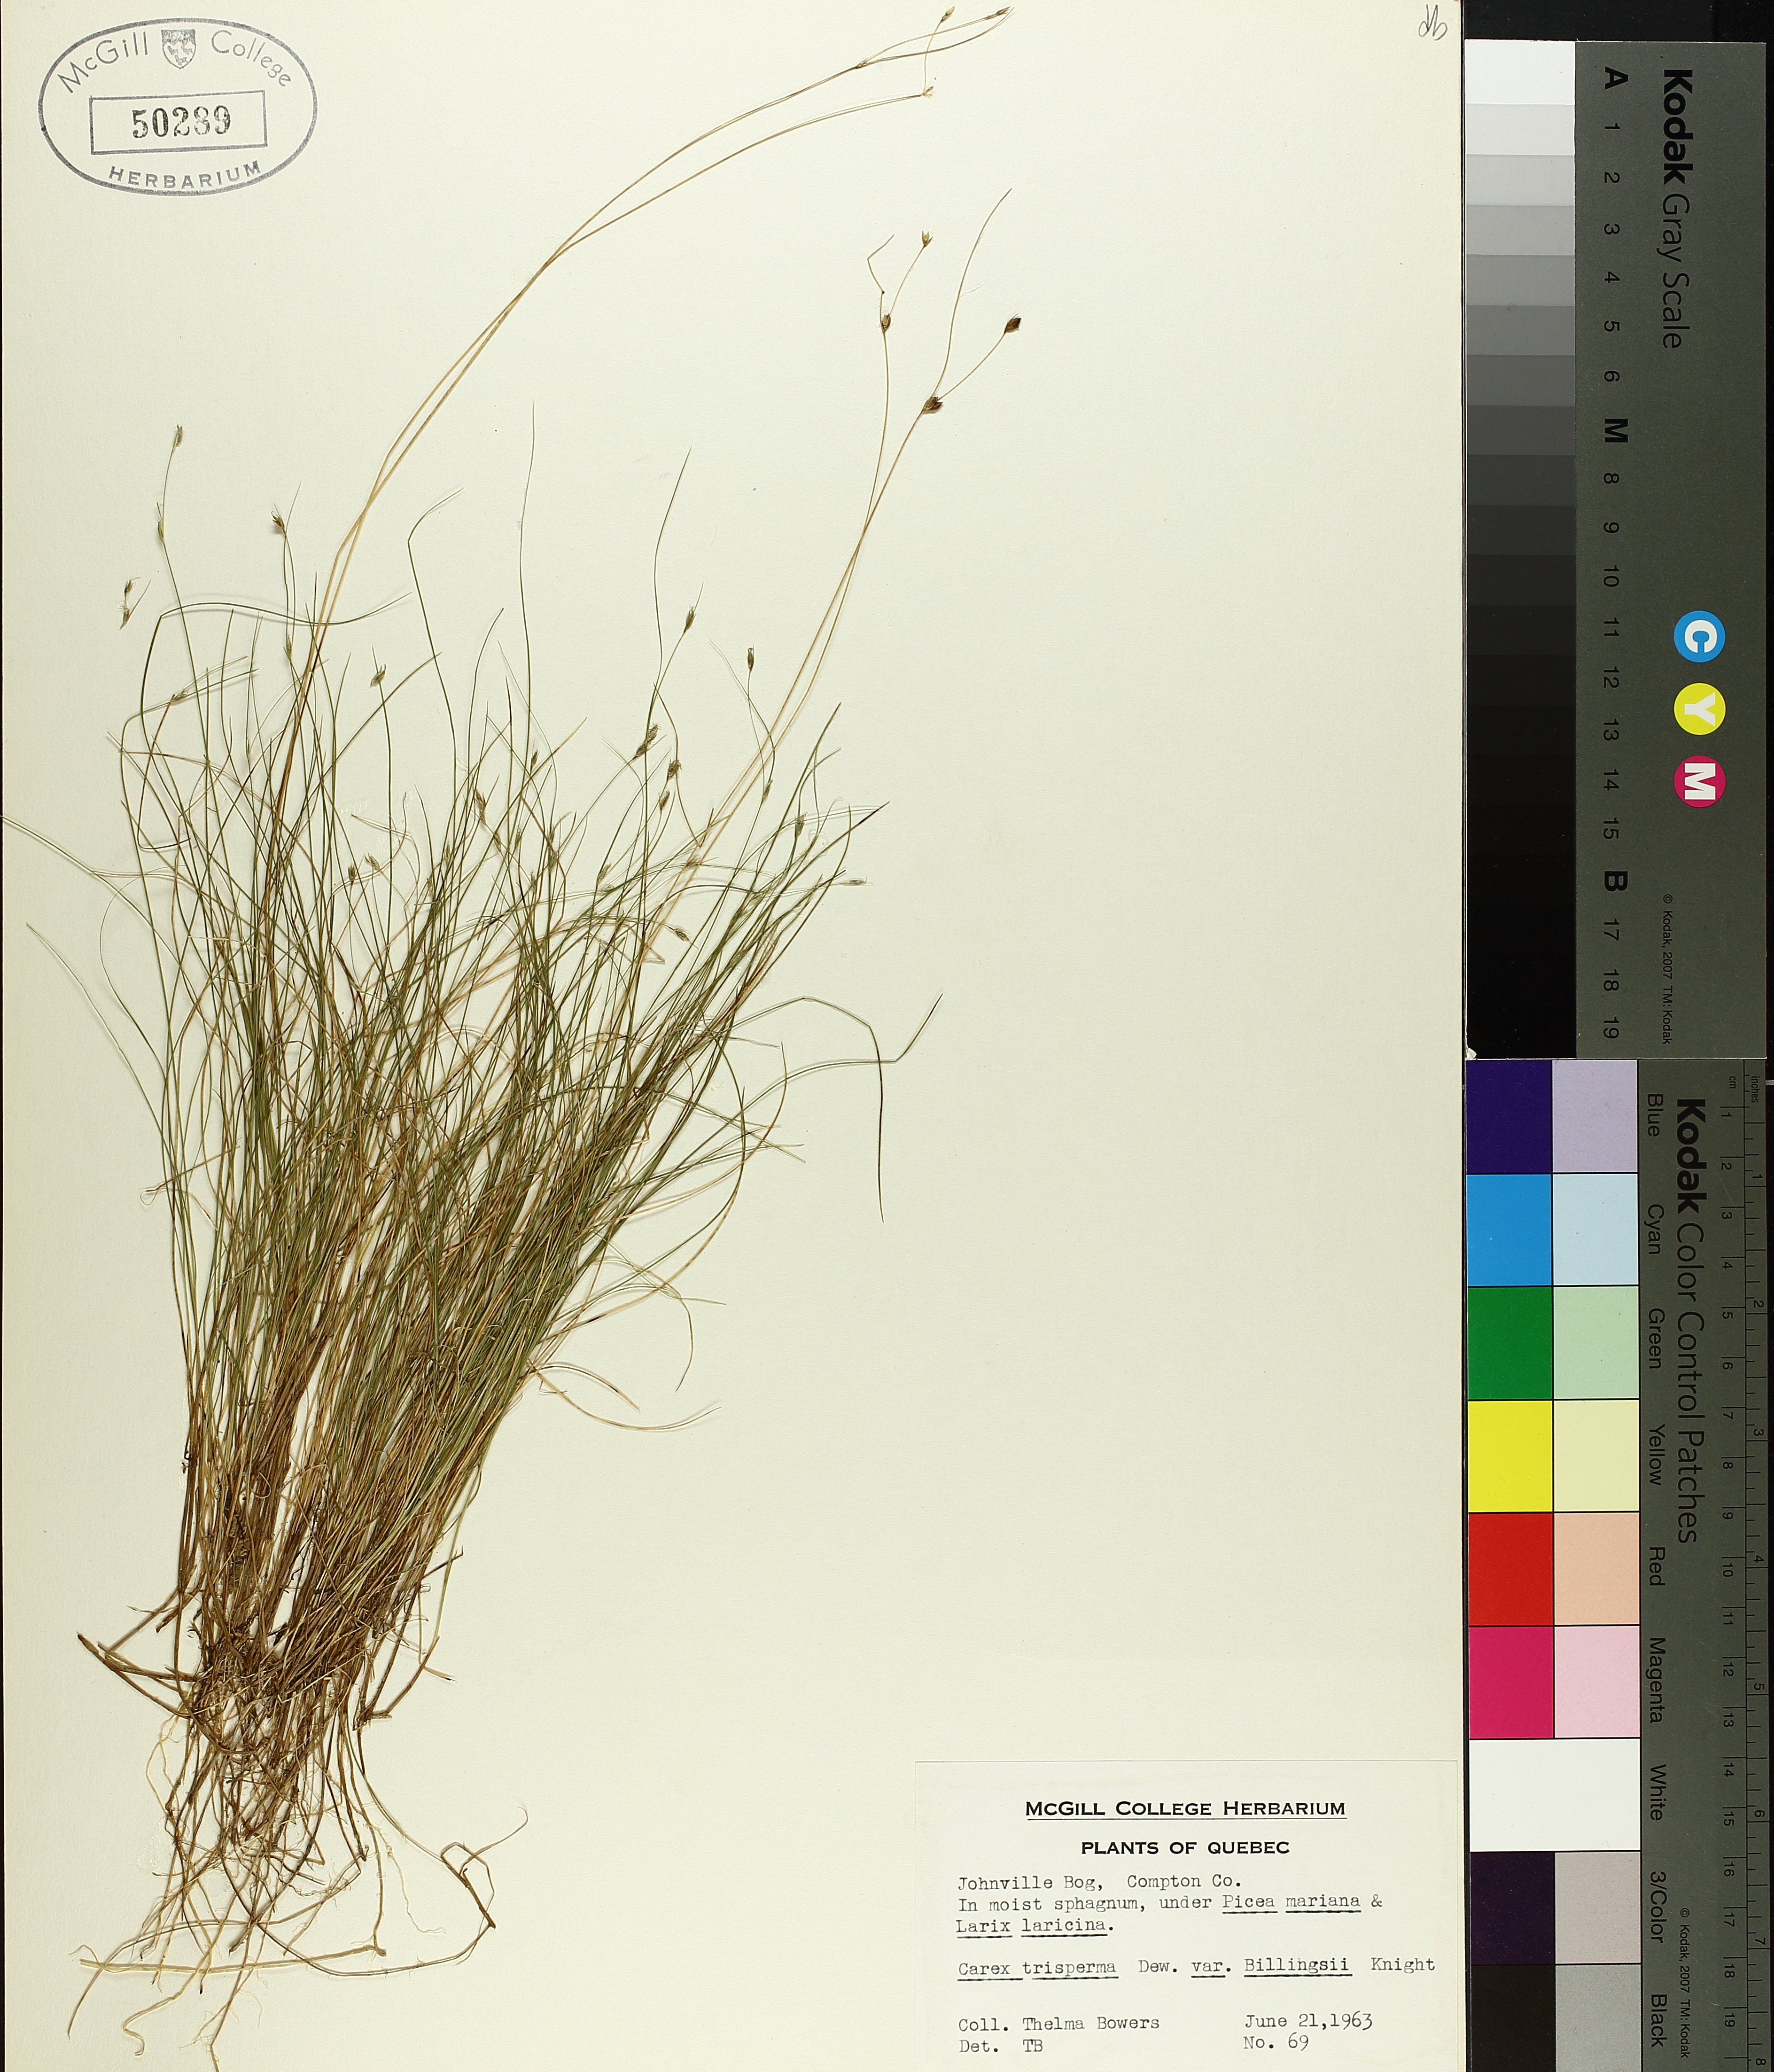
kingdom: Plantae
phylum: Tracheophyta
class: Liliopsida
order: Poales
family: Cyperaceae
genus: Carex
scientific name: Carex trisperma
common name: Three-seeded sedge
